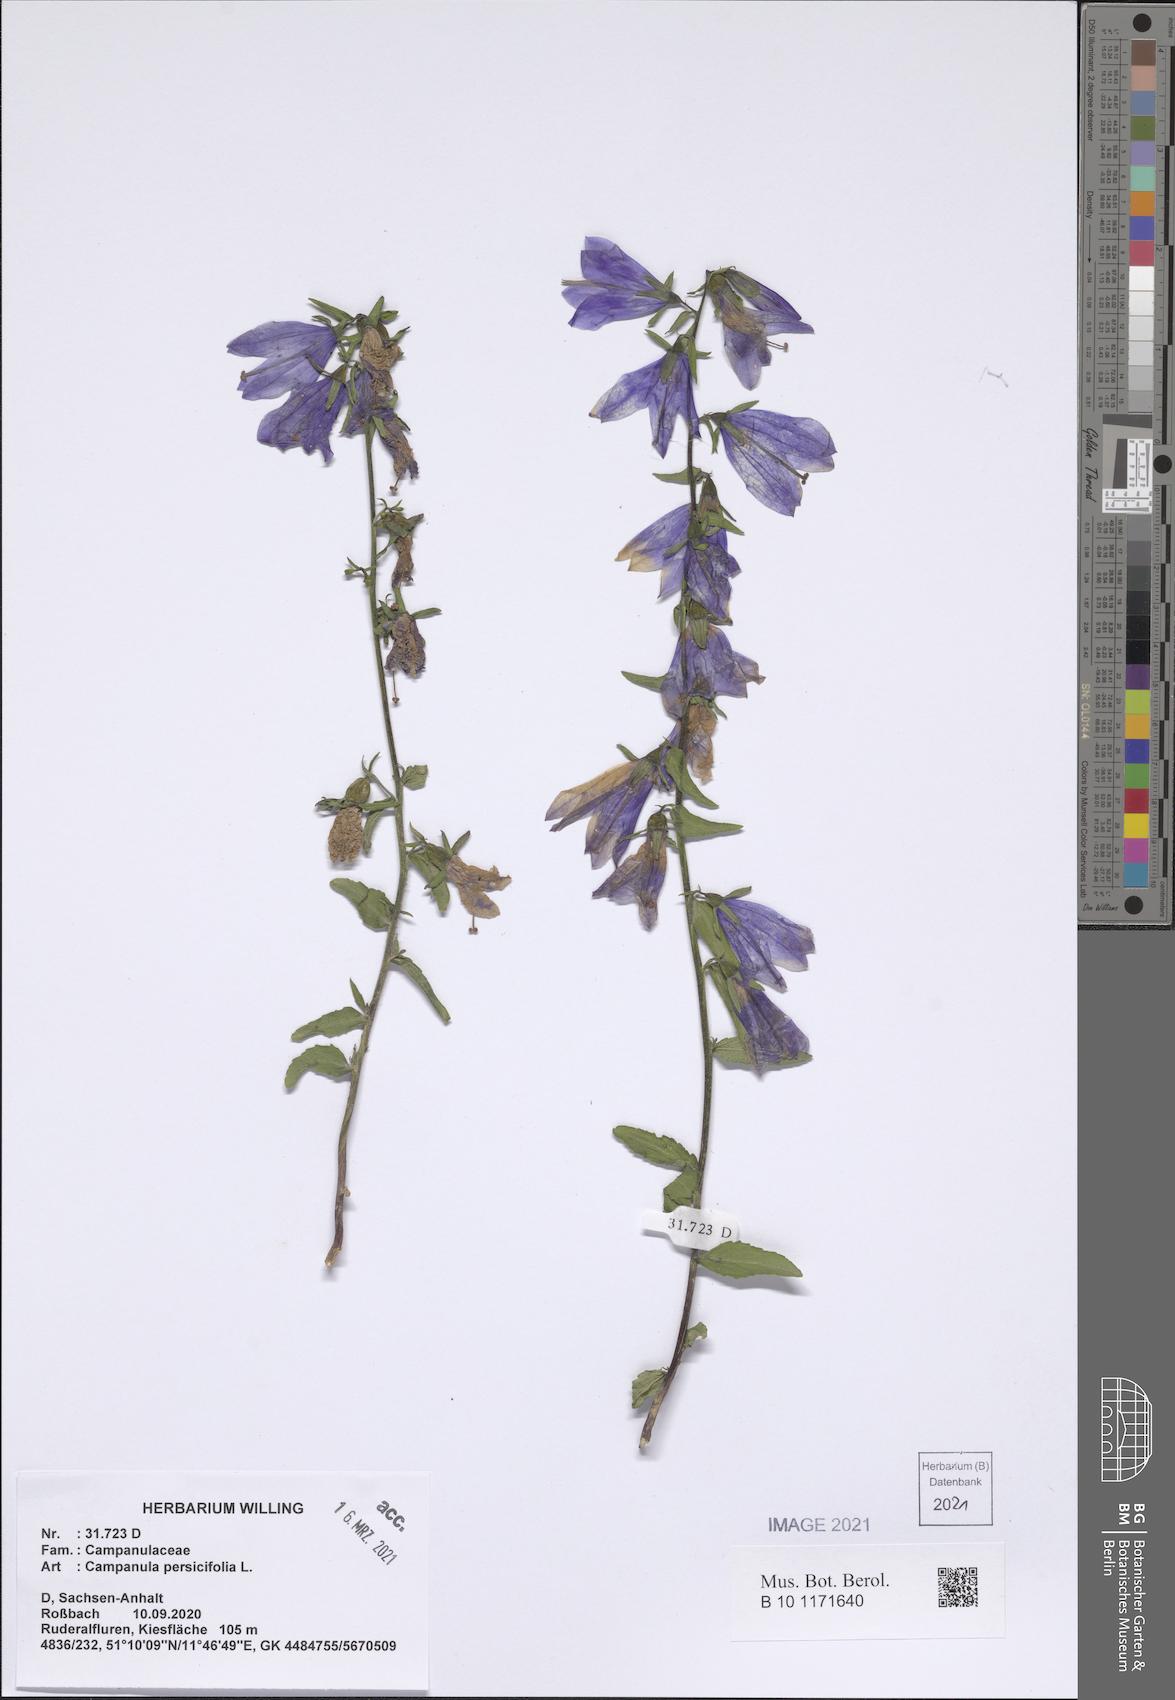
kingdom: Plantae
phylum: Tracheophyta
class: Magnoliopsida
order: Asterales
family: Campanulaceae
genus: Campanula
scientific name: Campanula persicifolia
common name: Peach-leaved bellflower
